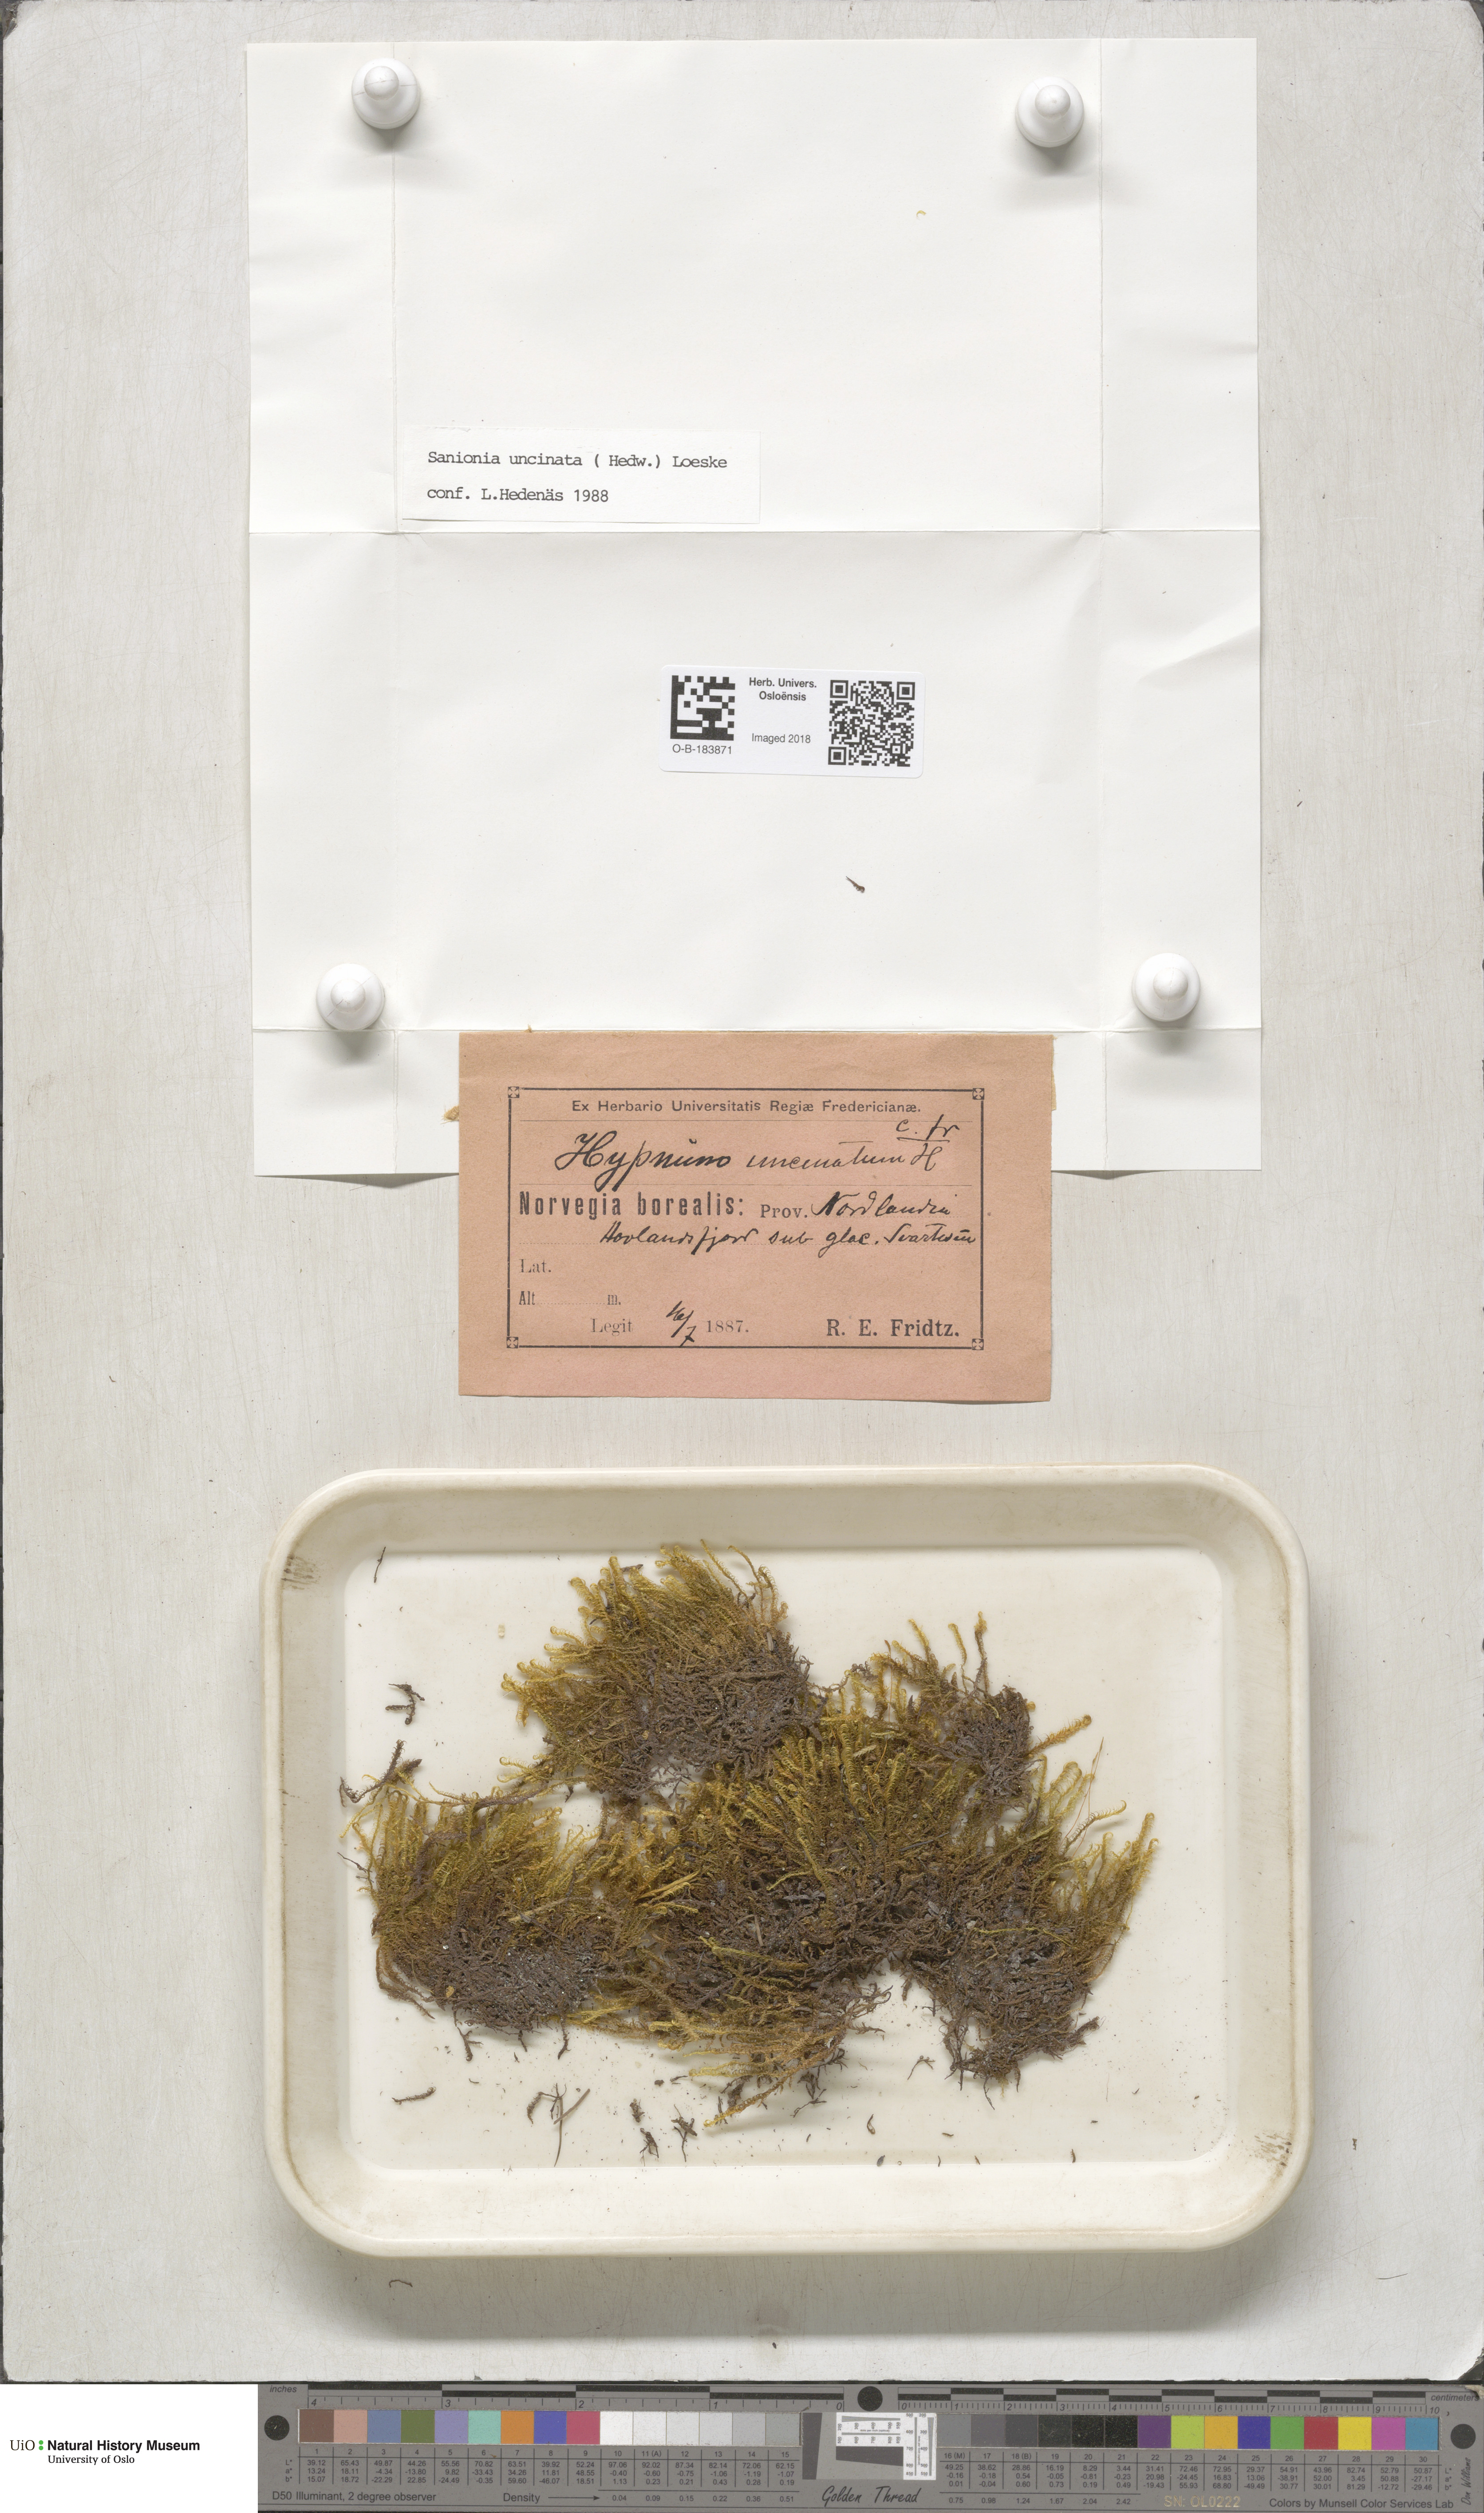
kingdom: Plantae
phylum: Bryophyta
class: Bryopsida
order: Hypnales
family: Scorpidiaceae
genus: Sanionia
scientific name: Sanionia uncinata
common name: Sickle moss
